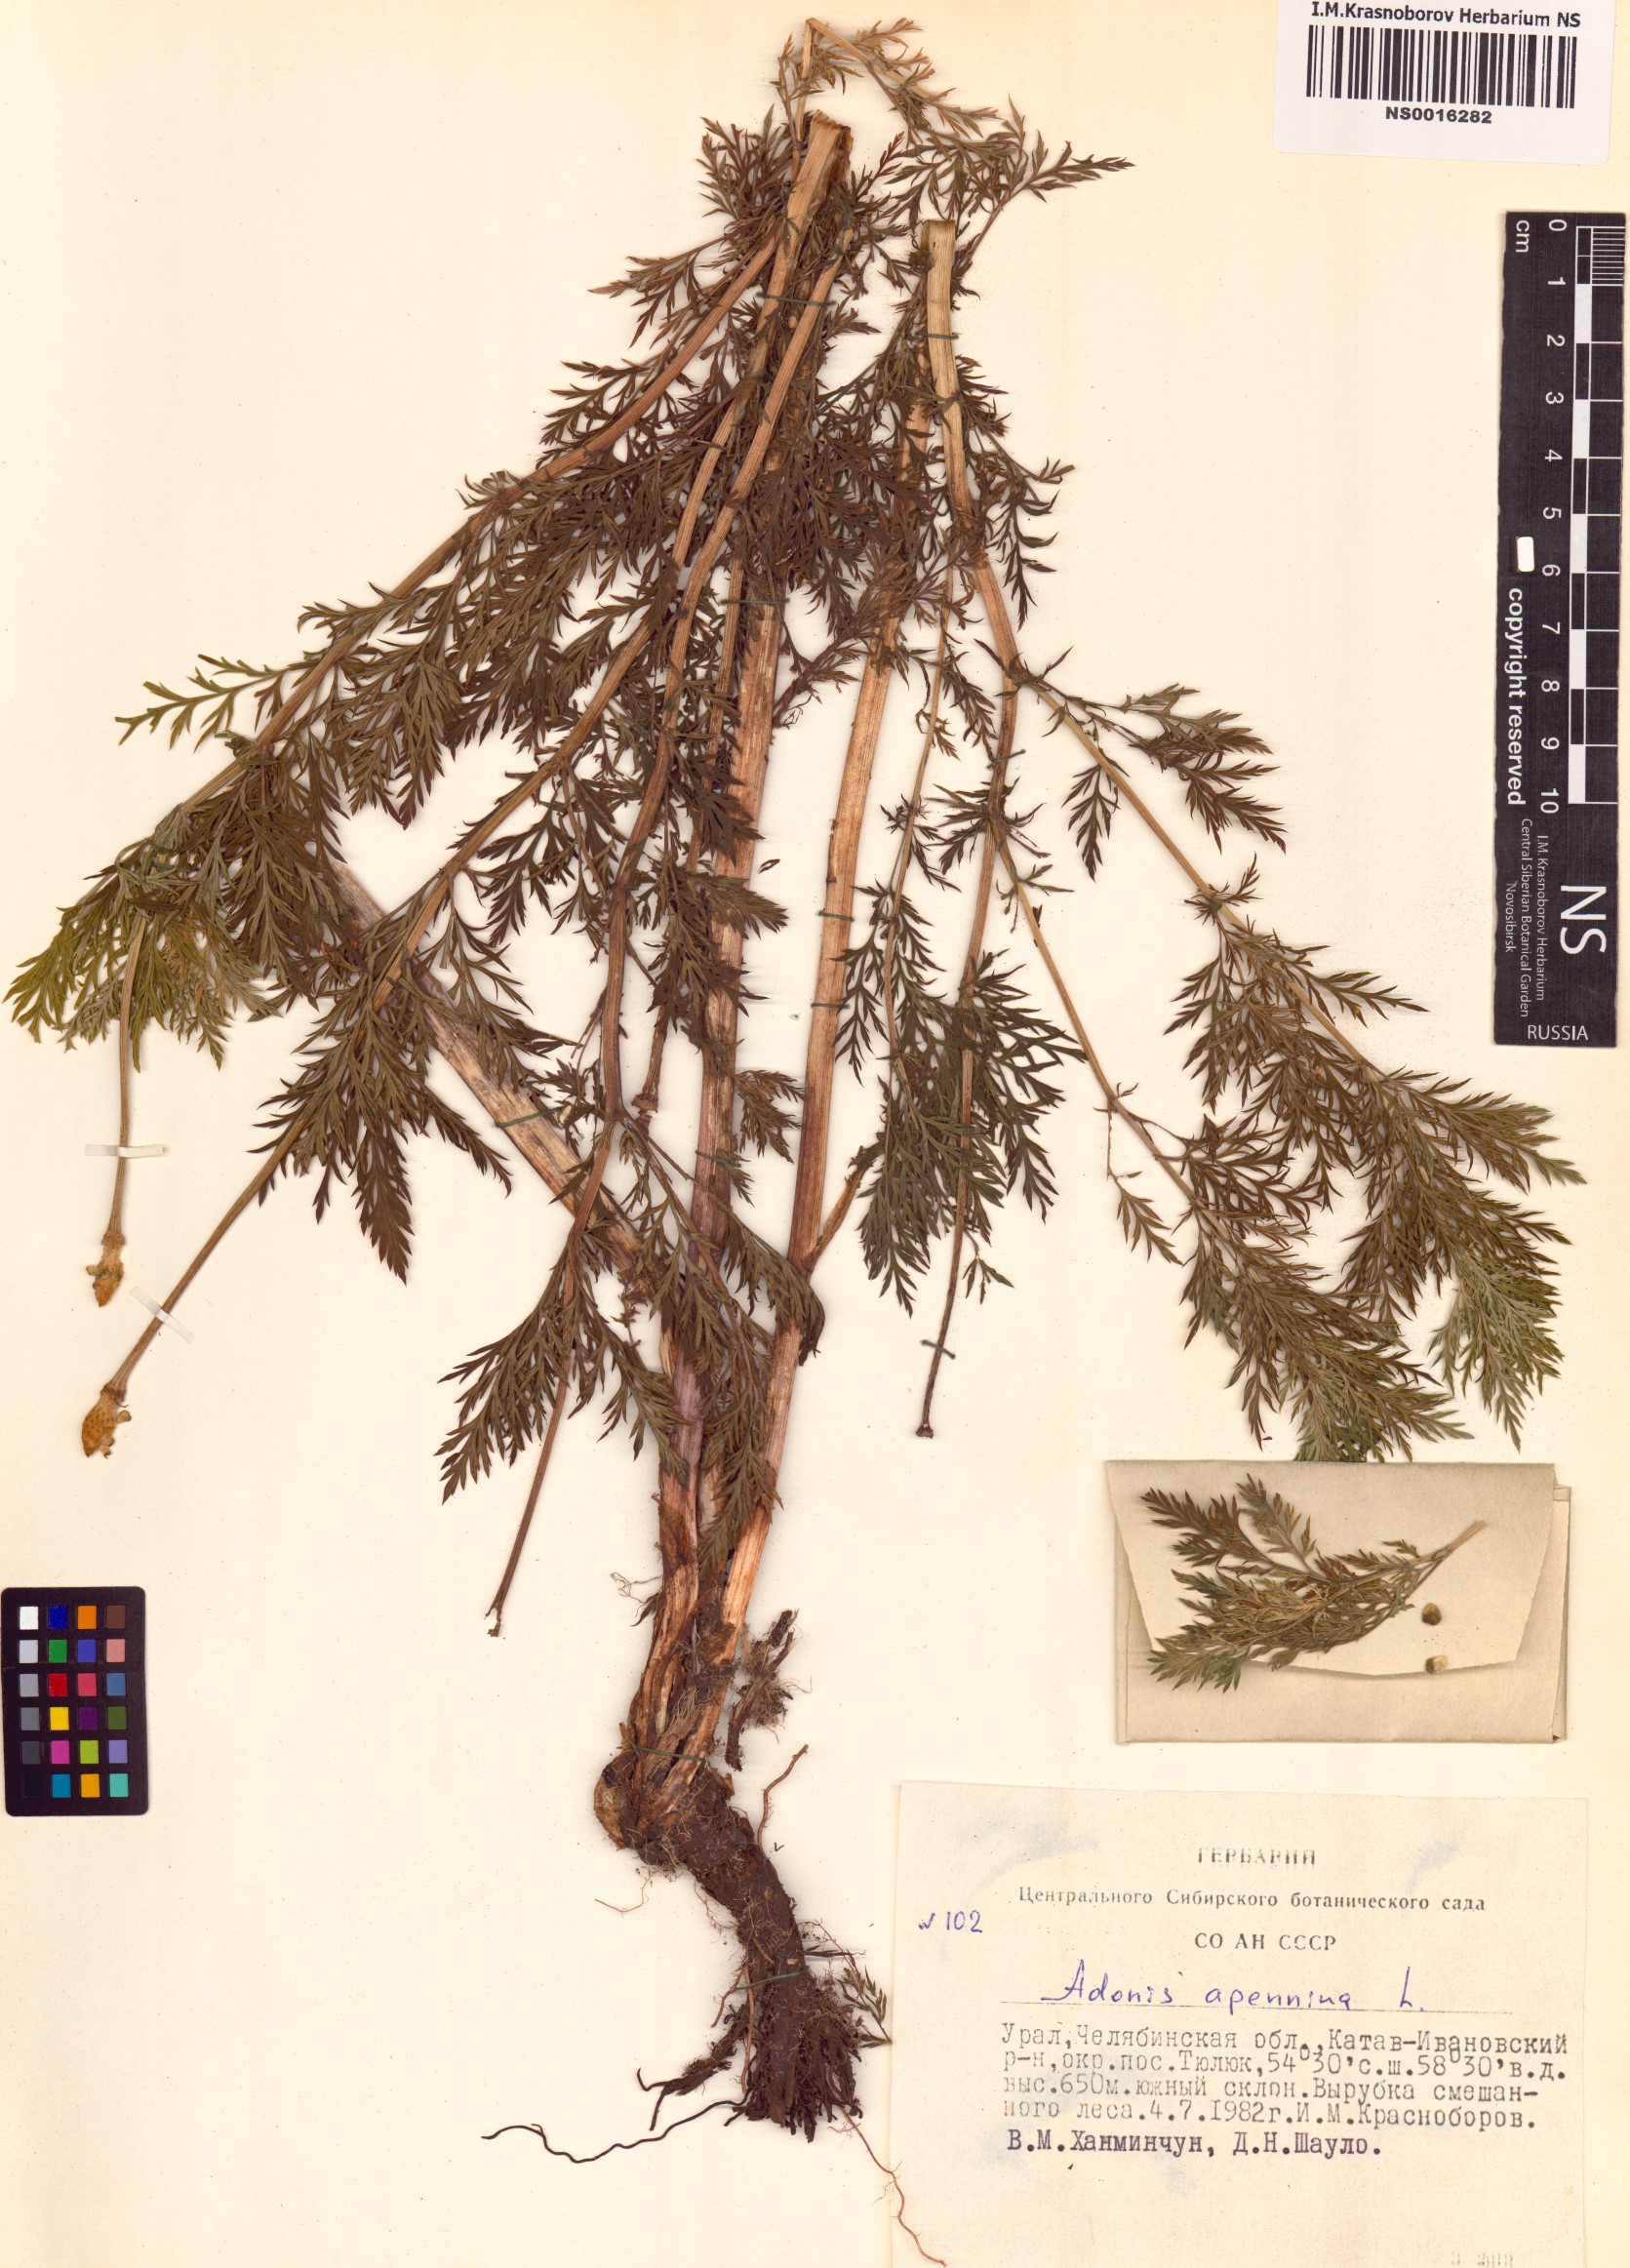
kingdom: Plantae
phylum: Tracheophyta
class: Magnoliopsida
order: Ranunculales
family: Ranunculaceae
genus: Adonis
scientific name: Adonis vernalis
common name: Yellow pheasants-eye
